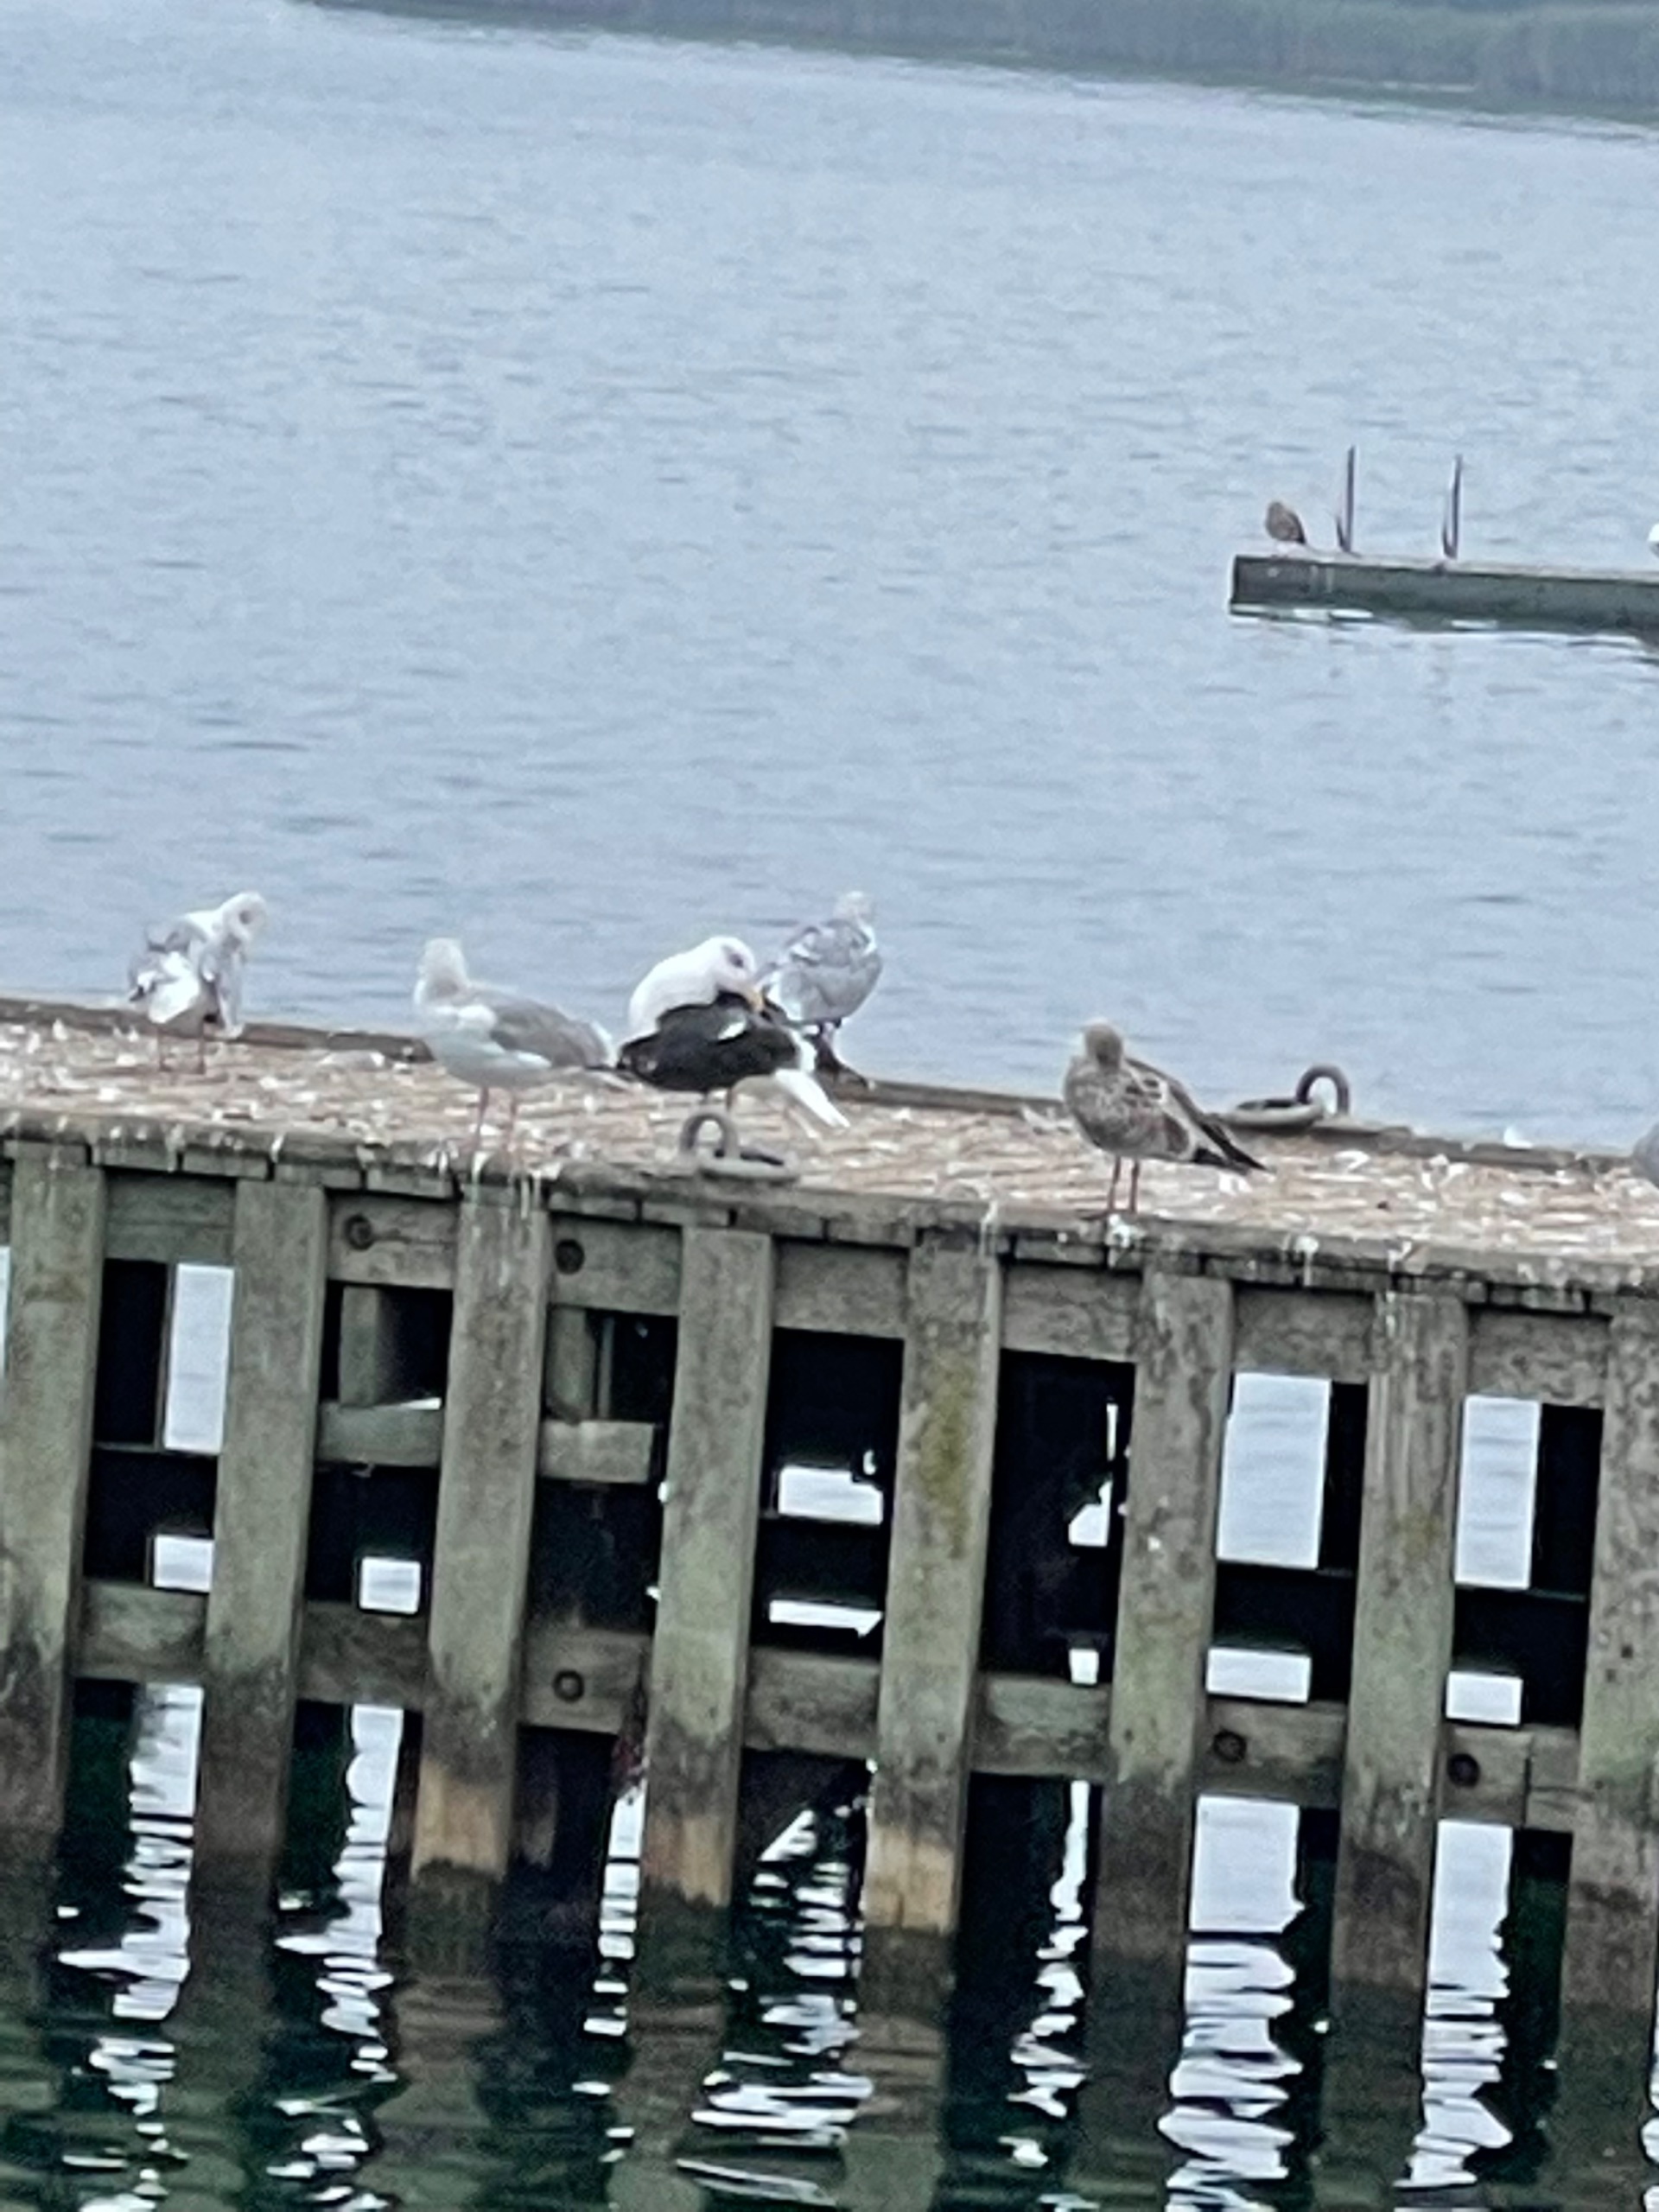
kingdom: Animalia
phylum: Chordata
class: Aves
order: Charadriiformes
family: Laridae
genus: Larus
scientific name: Larus marinus
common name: Svartbag
